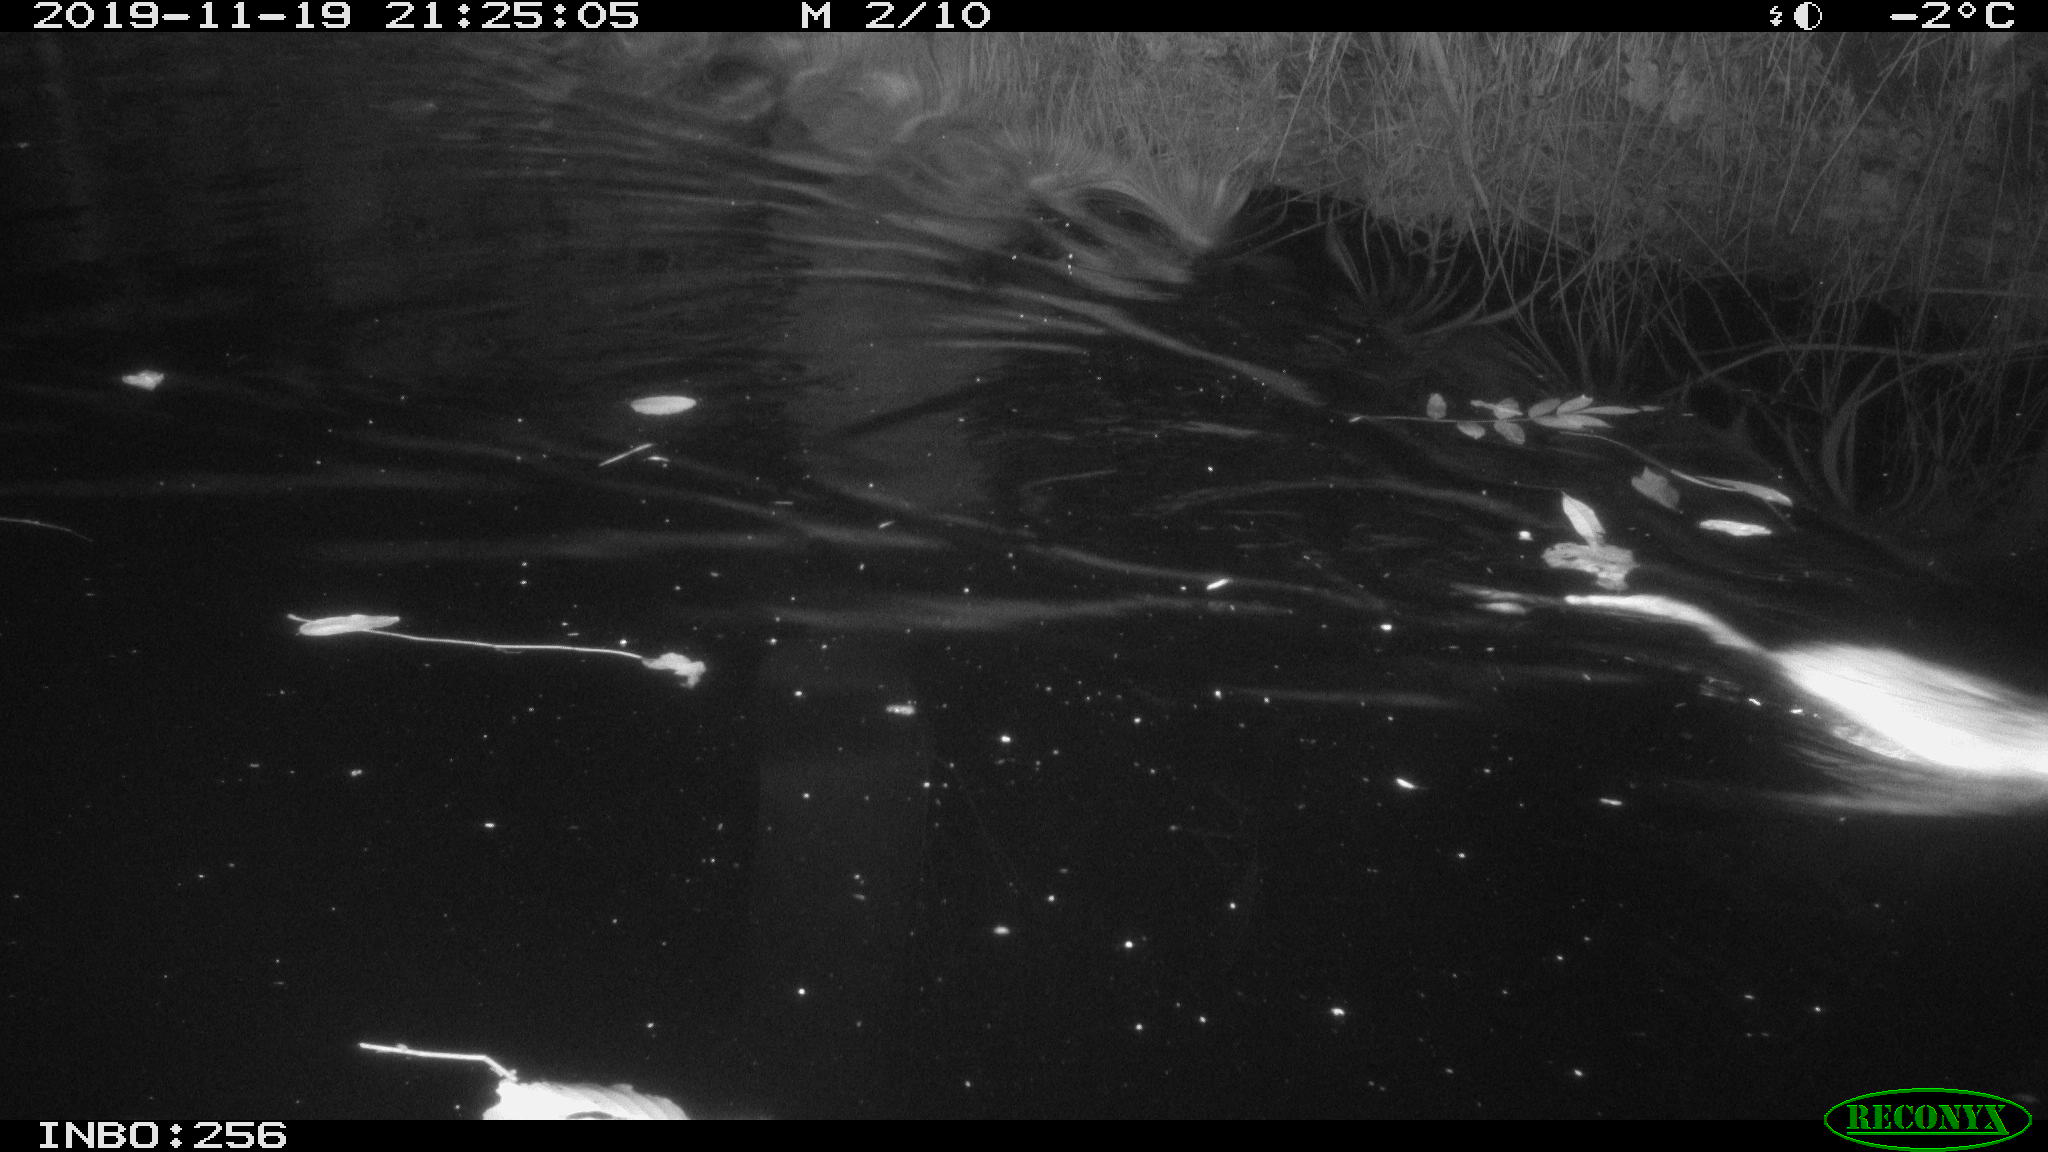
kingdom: Animalia
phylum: Chordata
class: Mammalia
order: Rodentia
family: Cricetidae
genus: Ondatra
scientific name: Ondatra zibethicus
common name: Muskrat
